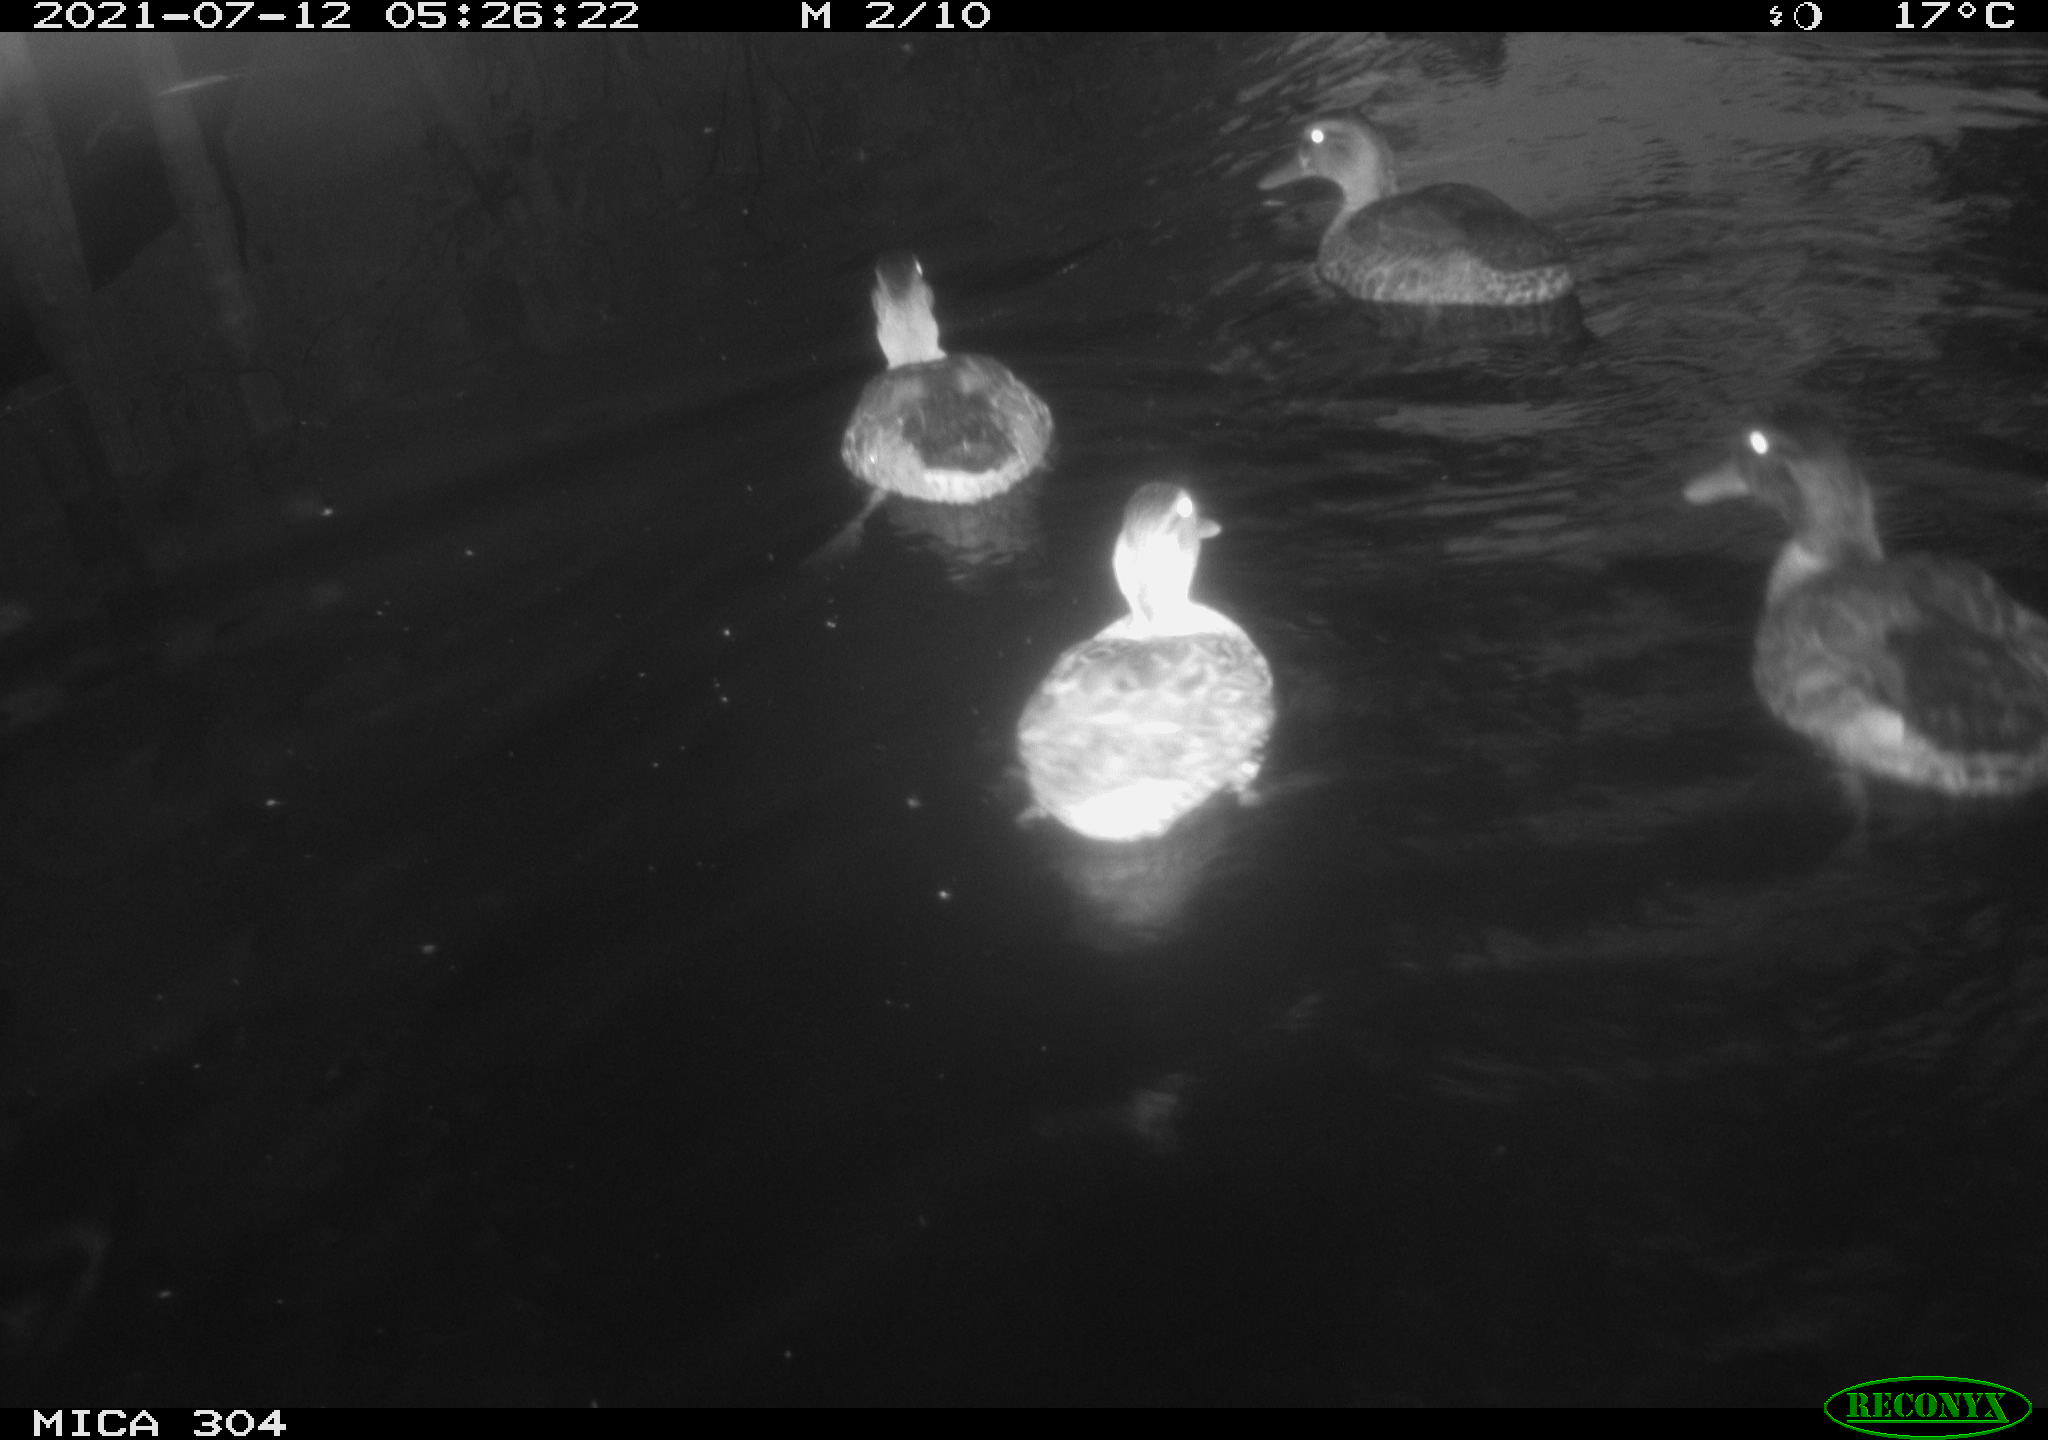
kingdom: Animalia
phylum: Chordata
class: Aves
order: Anseriformes
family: Anatidae
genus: Mareca
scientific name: Mareca strepera
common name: Gadwall
